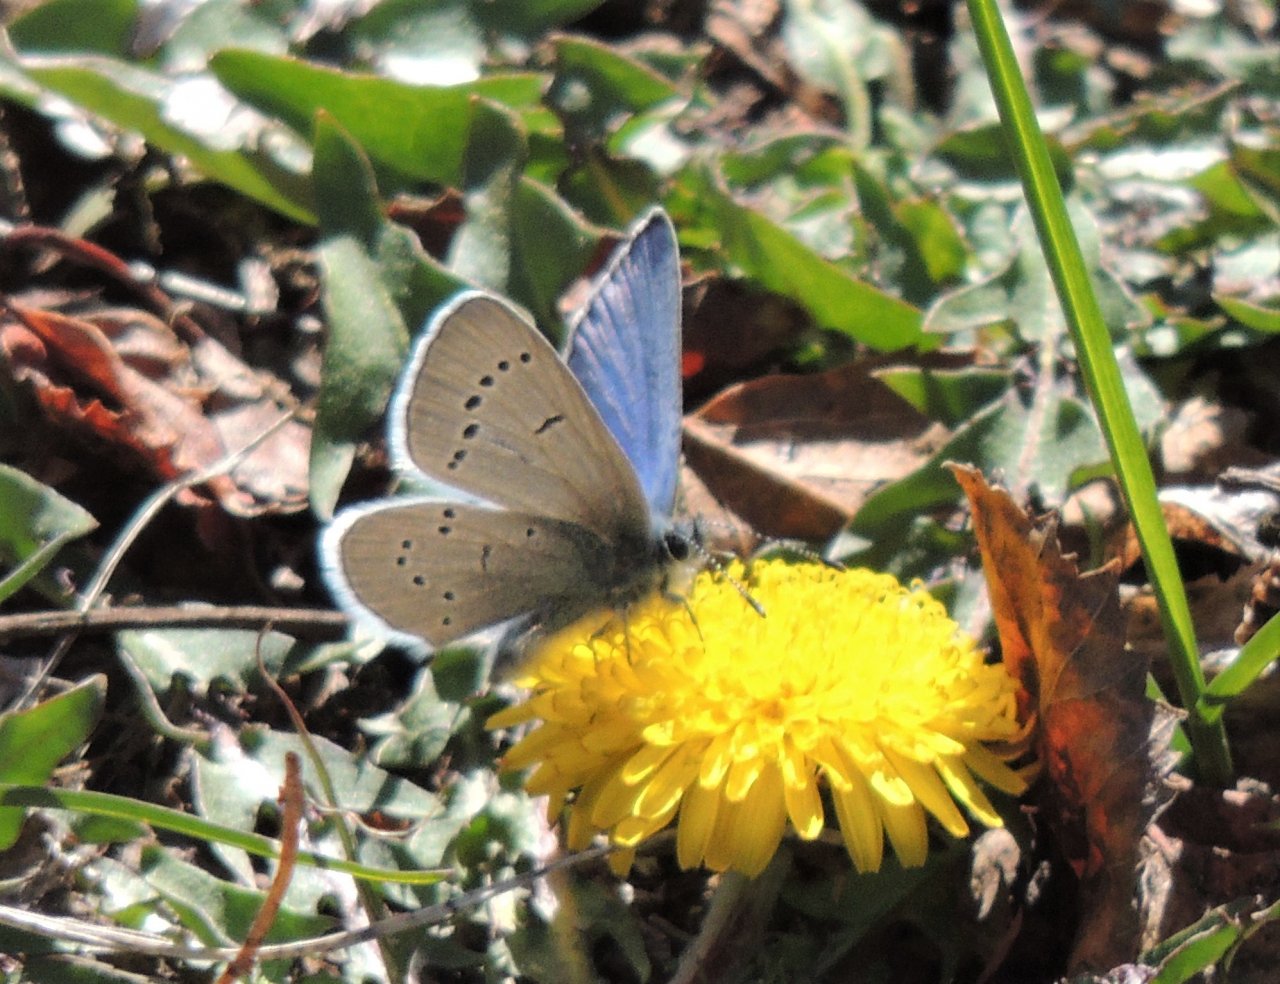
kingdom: Animalia
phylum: Arthropoda
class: Insecta
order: Lepidoptera
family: Lycaenidae
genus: Glaucopsyche
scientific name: Glaucopsyche lygdamus
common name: Silvery Blue
